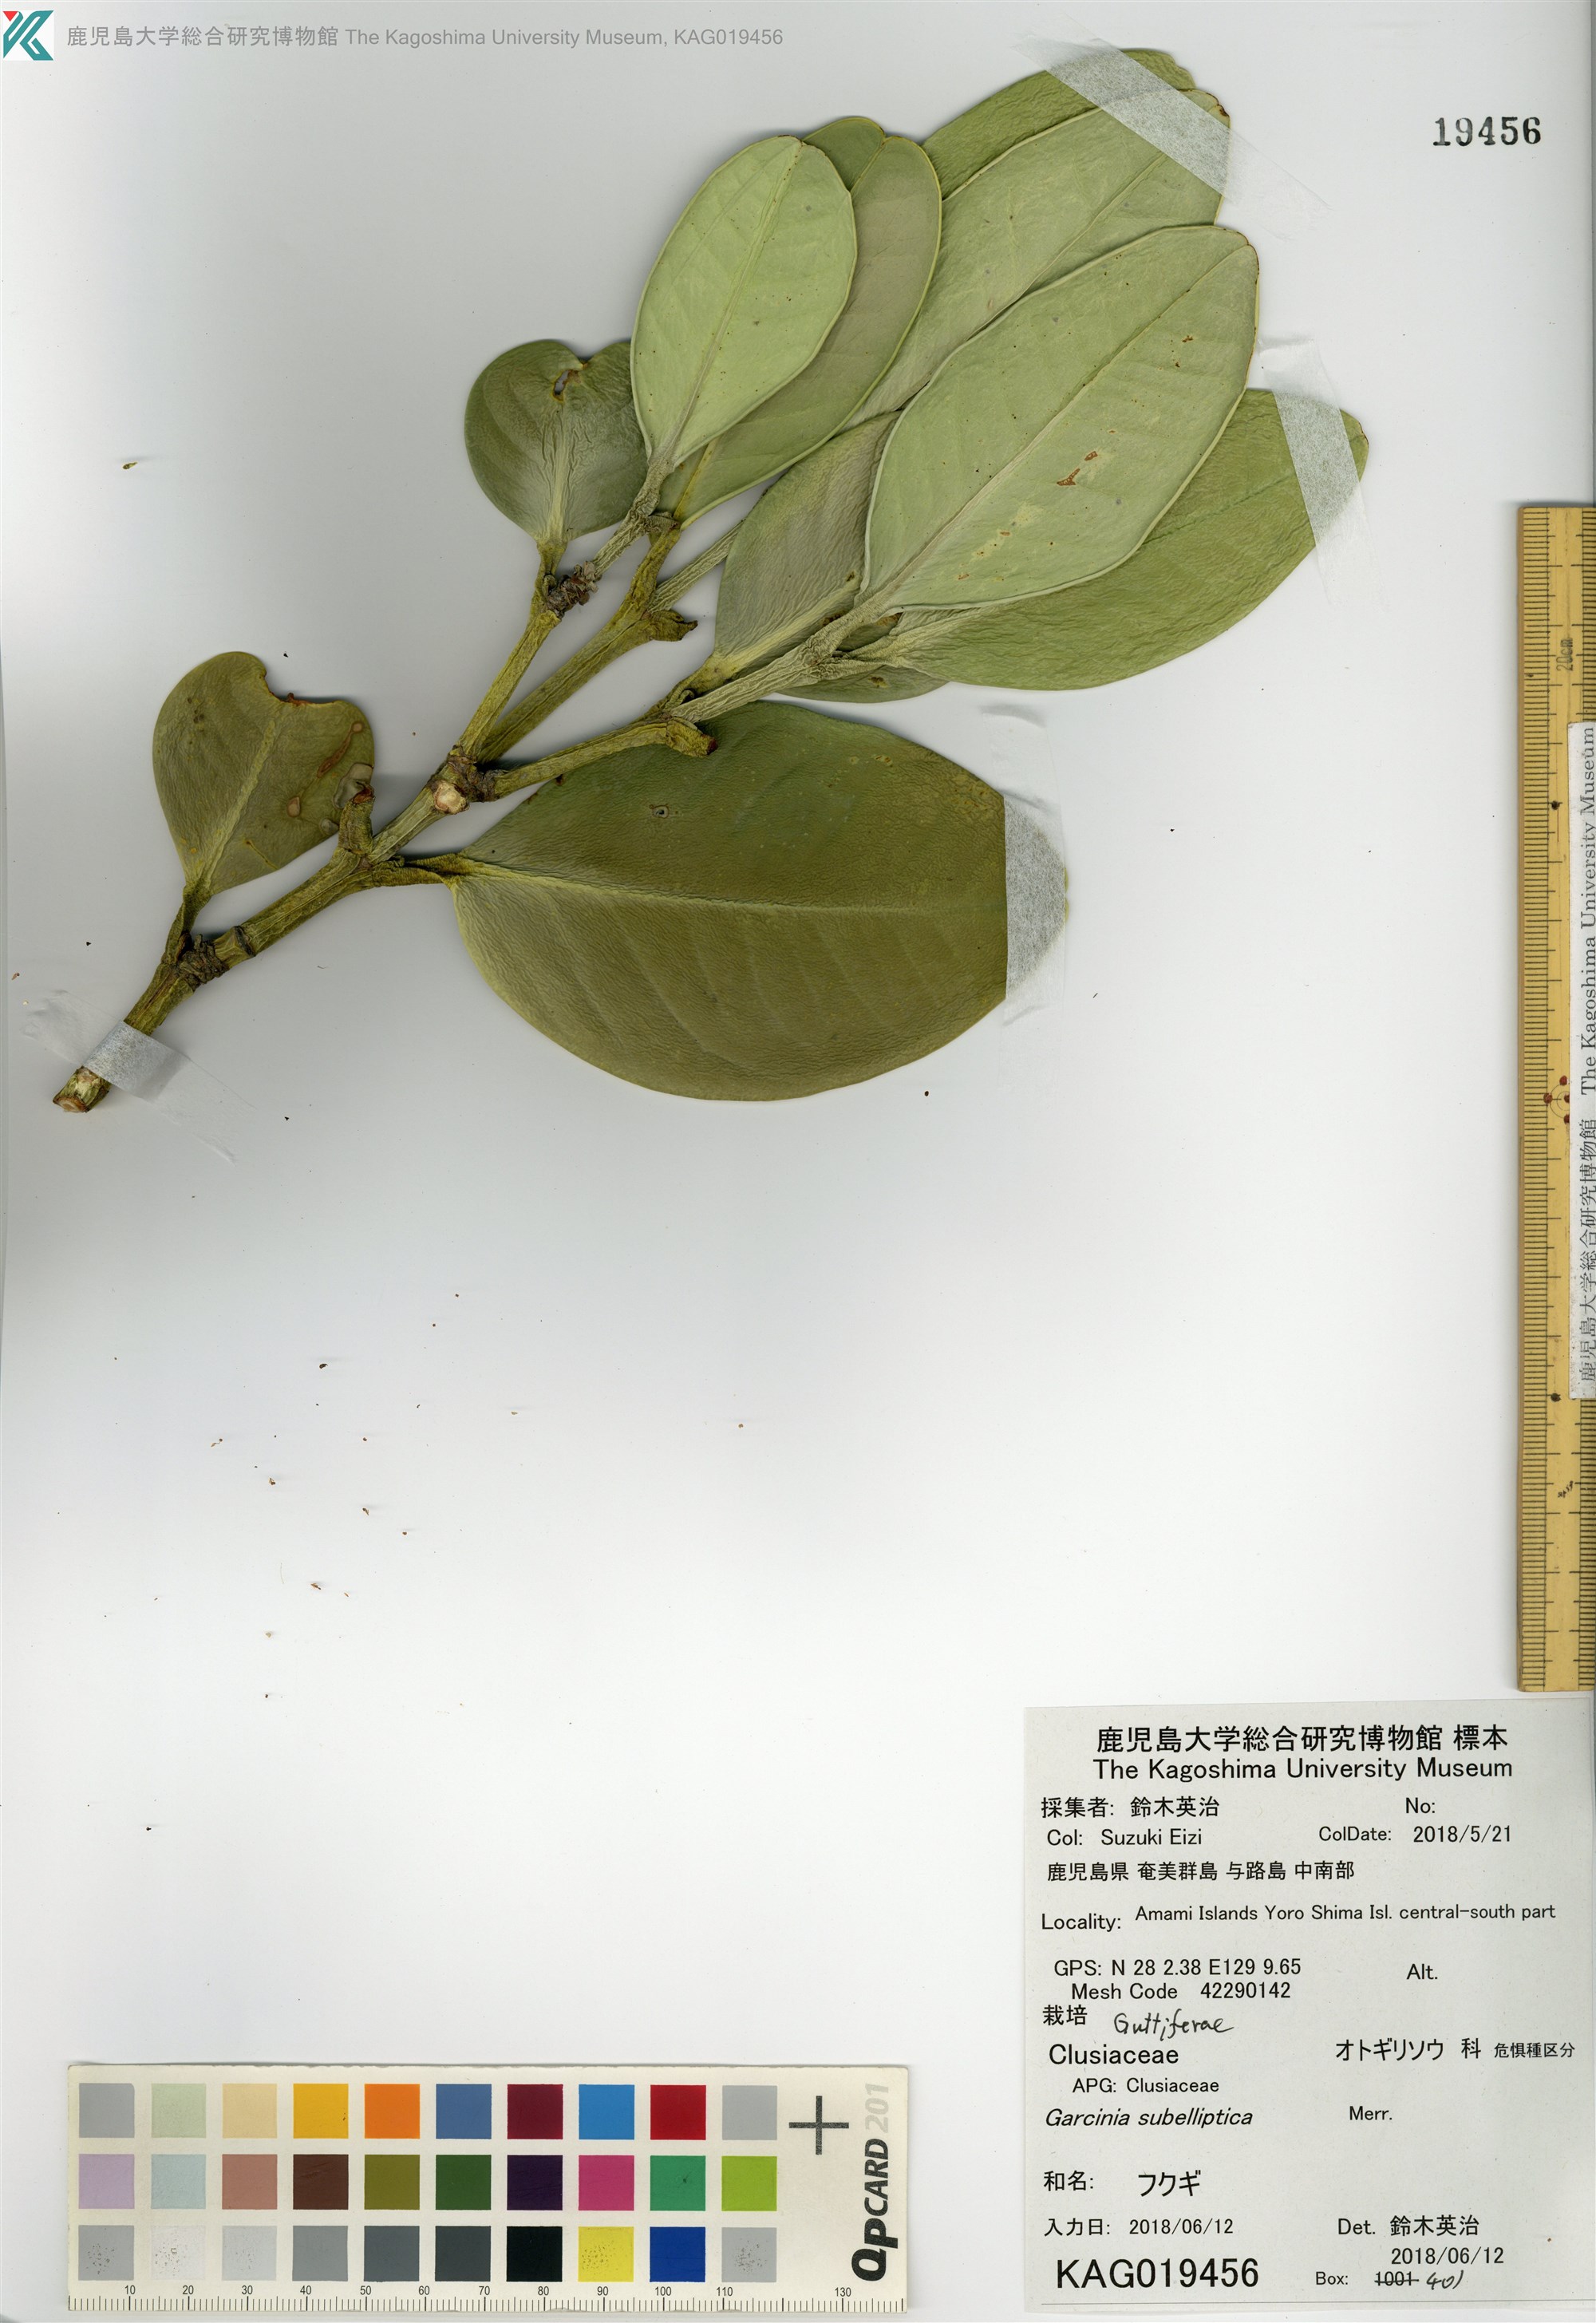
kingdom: Plantae
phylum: Tracheophyta
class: Magnoliopsida
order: Malpighiales
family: Clusiaceae
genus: Garcinia
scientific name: Garcinia subelliptica
